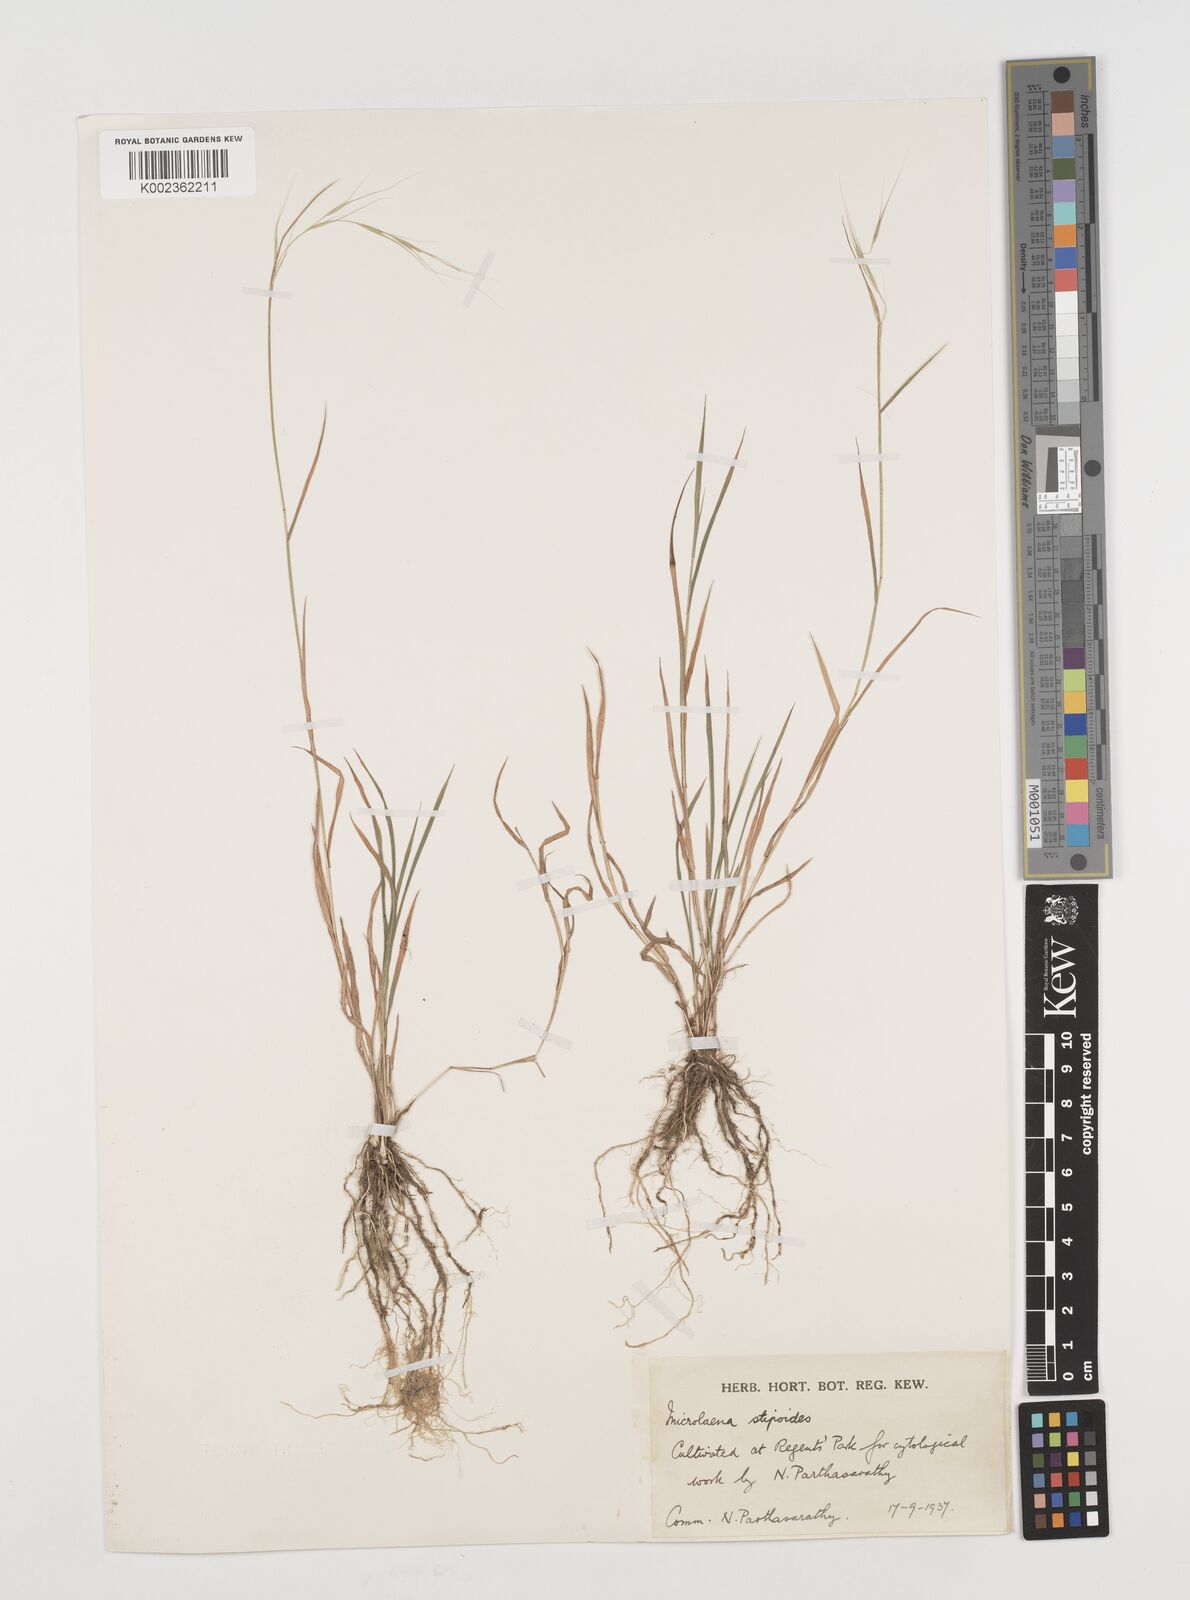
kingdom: Plantae
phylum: Tracheophyta
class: Liliopsida
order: Poales
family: Poaceae
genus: Microlaena
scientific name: Microlaena stipoides
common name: Meadow ricegrass
